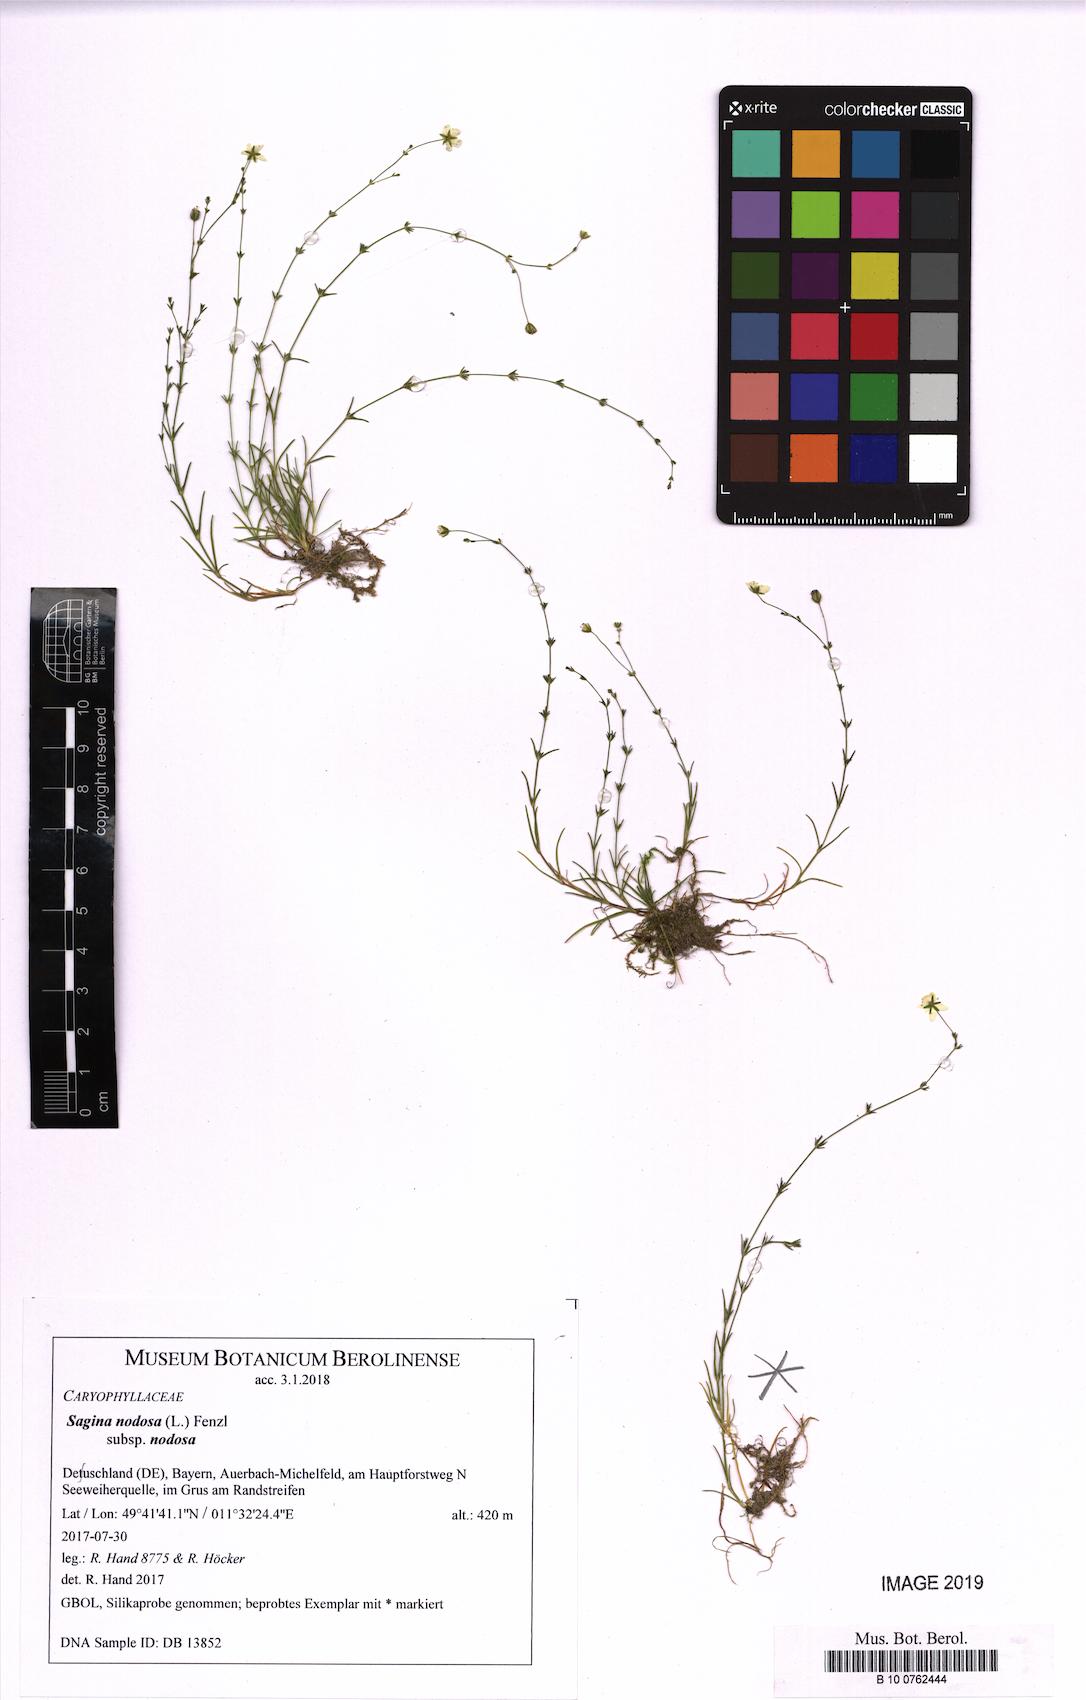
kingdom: Plantae
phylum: Tracheophyta
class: Magnoliopsida
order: Caryophyllales
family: Caryophyllaceae
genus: Sagina
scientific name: Sagina nodosa
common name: Knotted pearlwort
